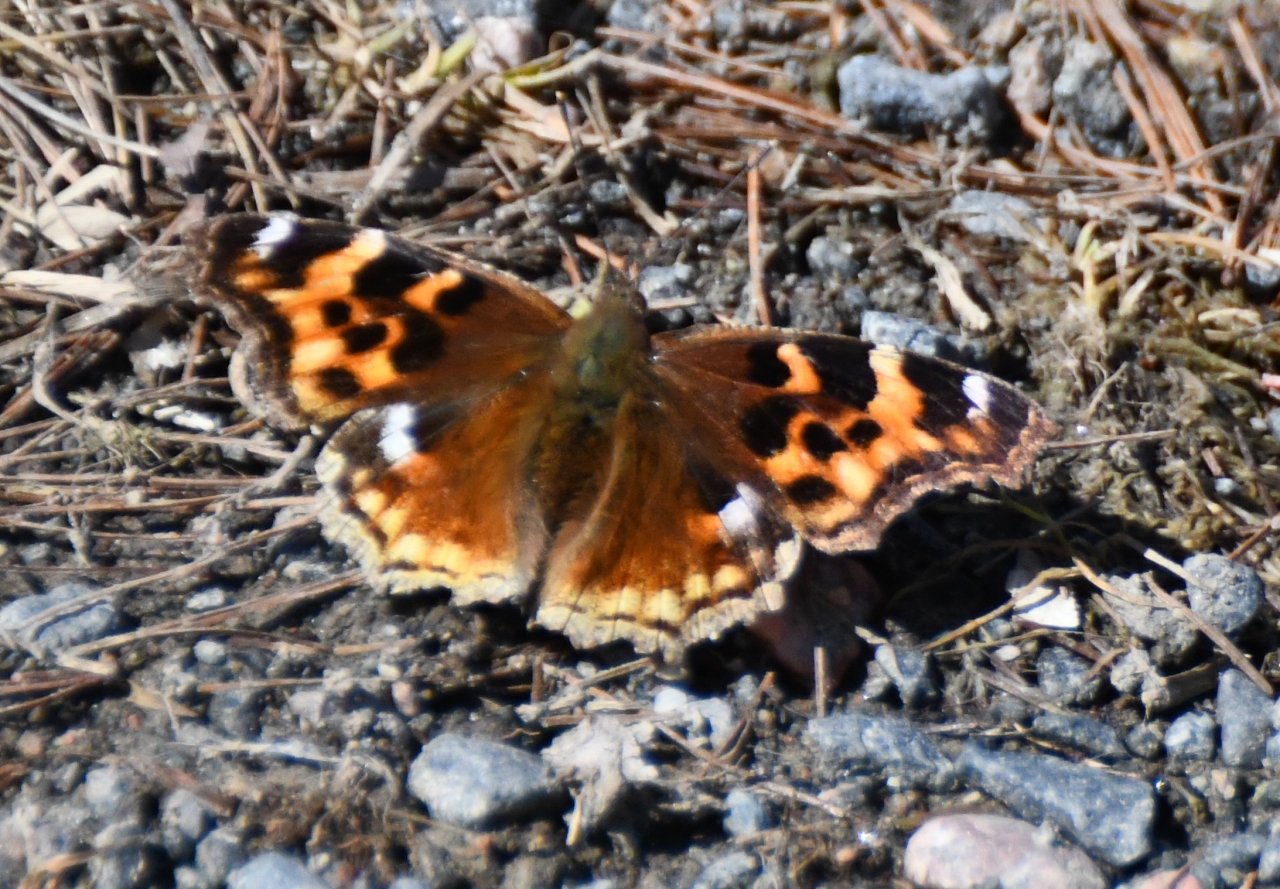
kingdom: Animalia
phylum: Arthropoda
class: Insecta
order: Lepidoptera
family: Nymphalidae
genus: Polygonia
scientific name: Polygonia vaualbum
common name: Compton Tortoiseshell
